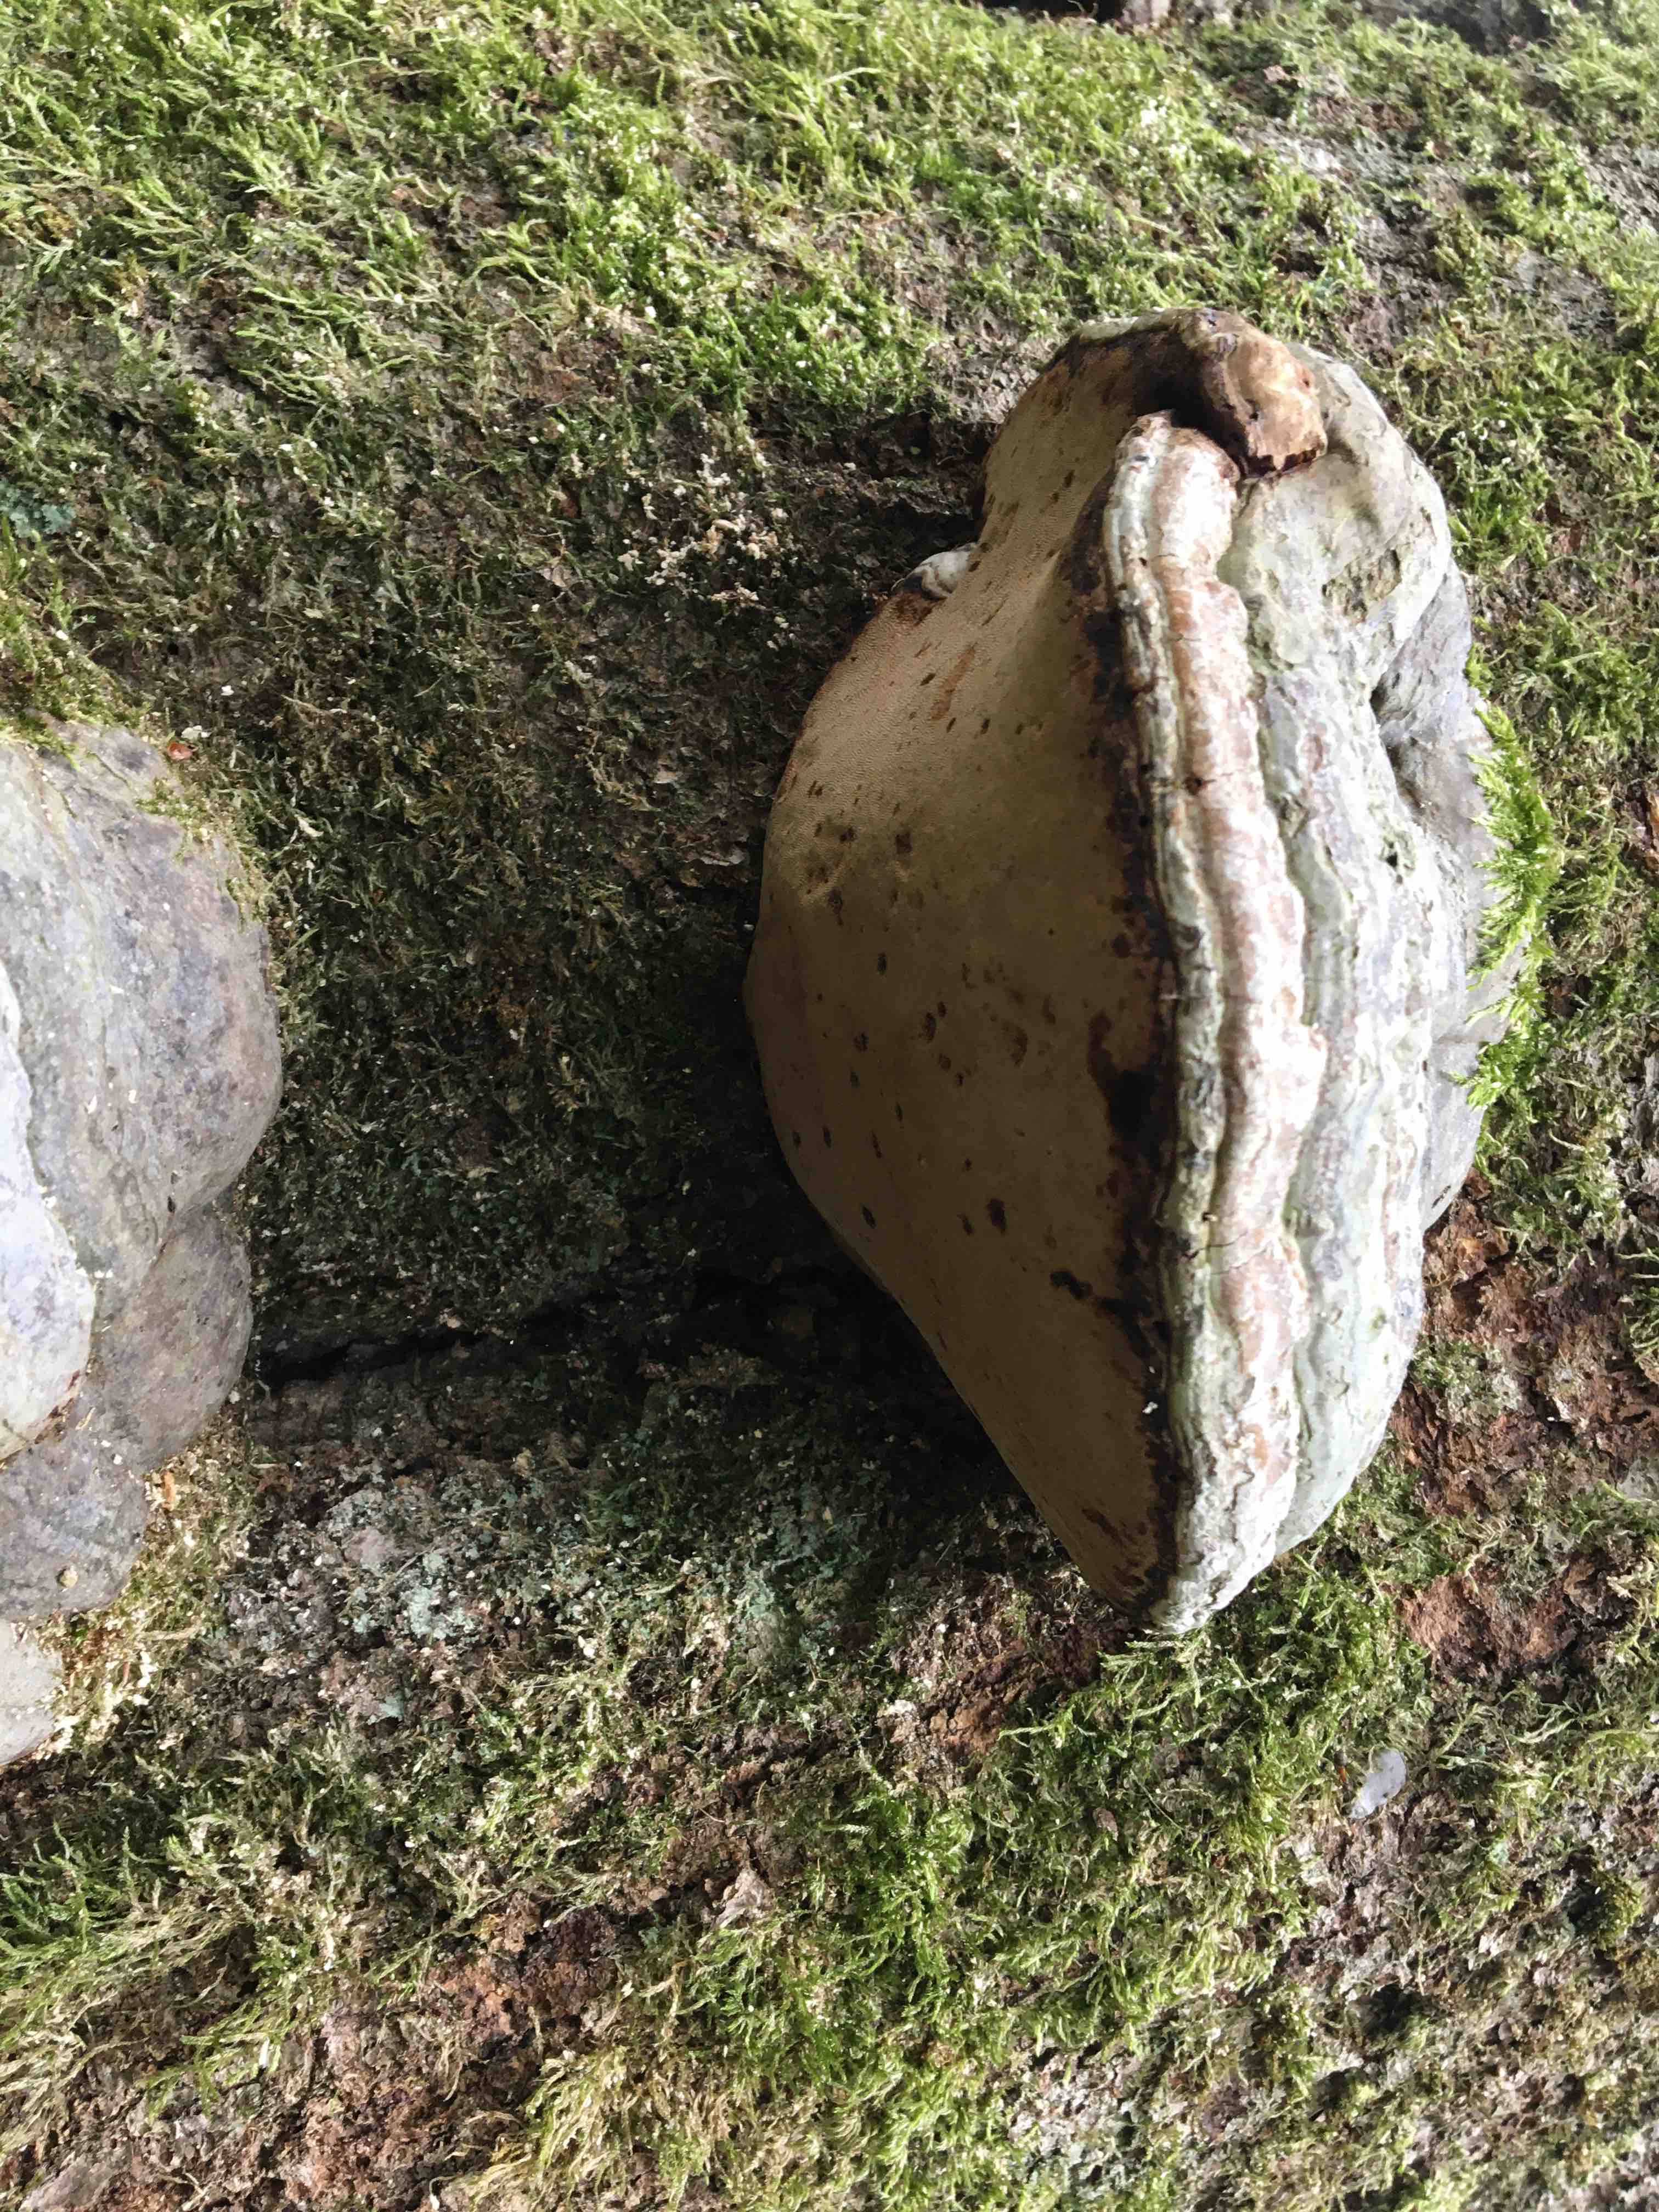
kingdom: Fungi
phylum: Basidiomycota
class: Agaricomycetes
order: Polyporales
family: Polyporaceae
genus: Fomes
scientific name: Fomes fomentarius
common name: tøndersvamp
